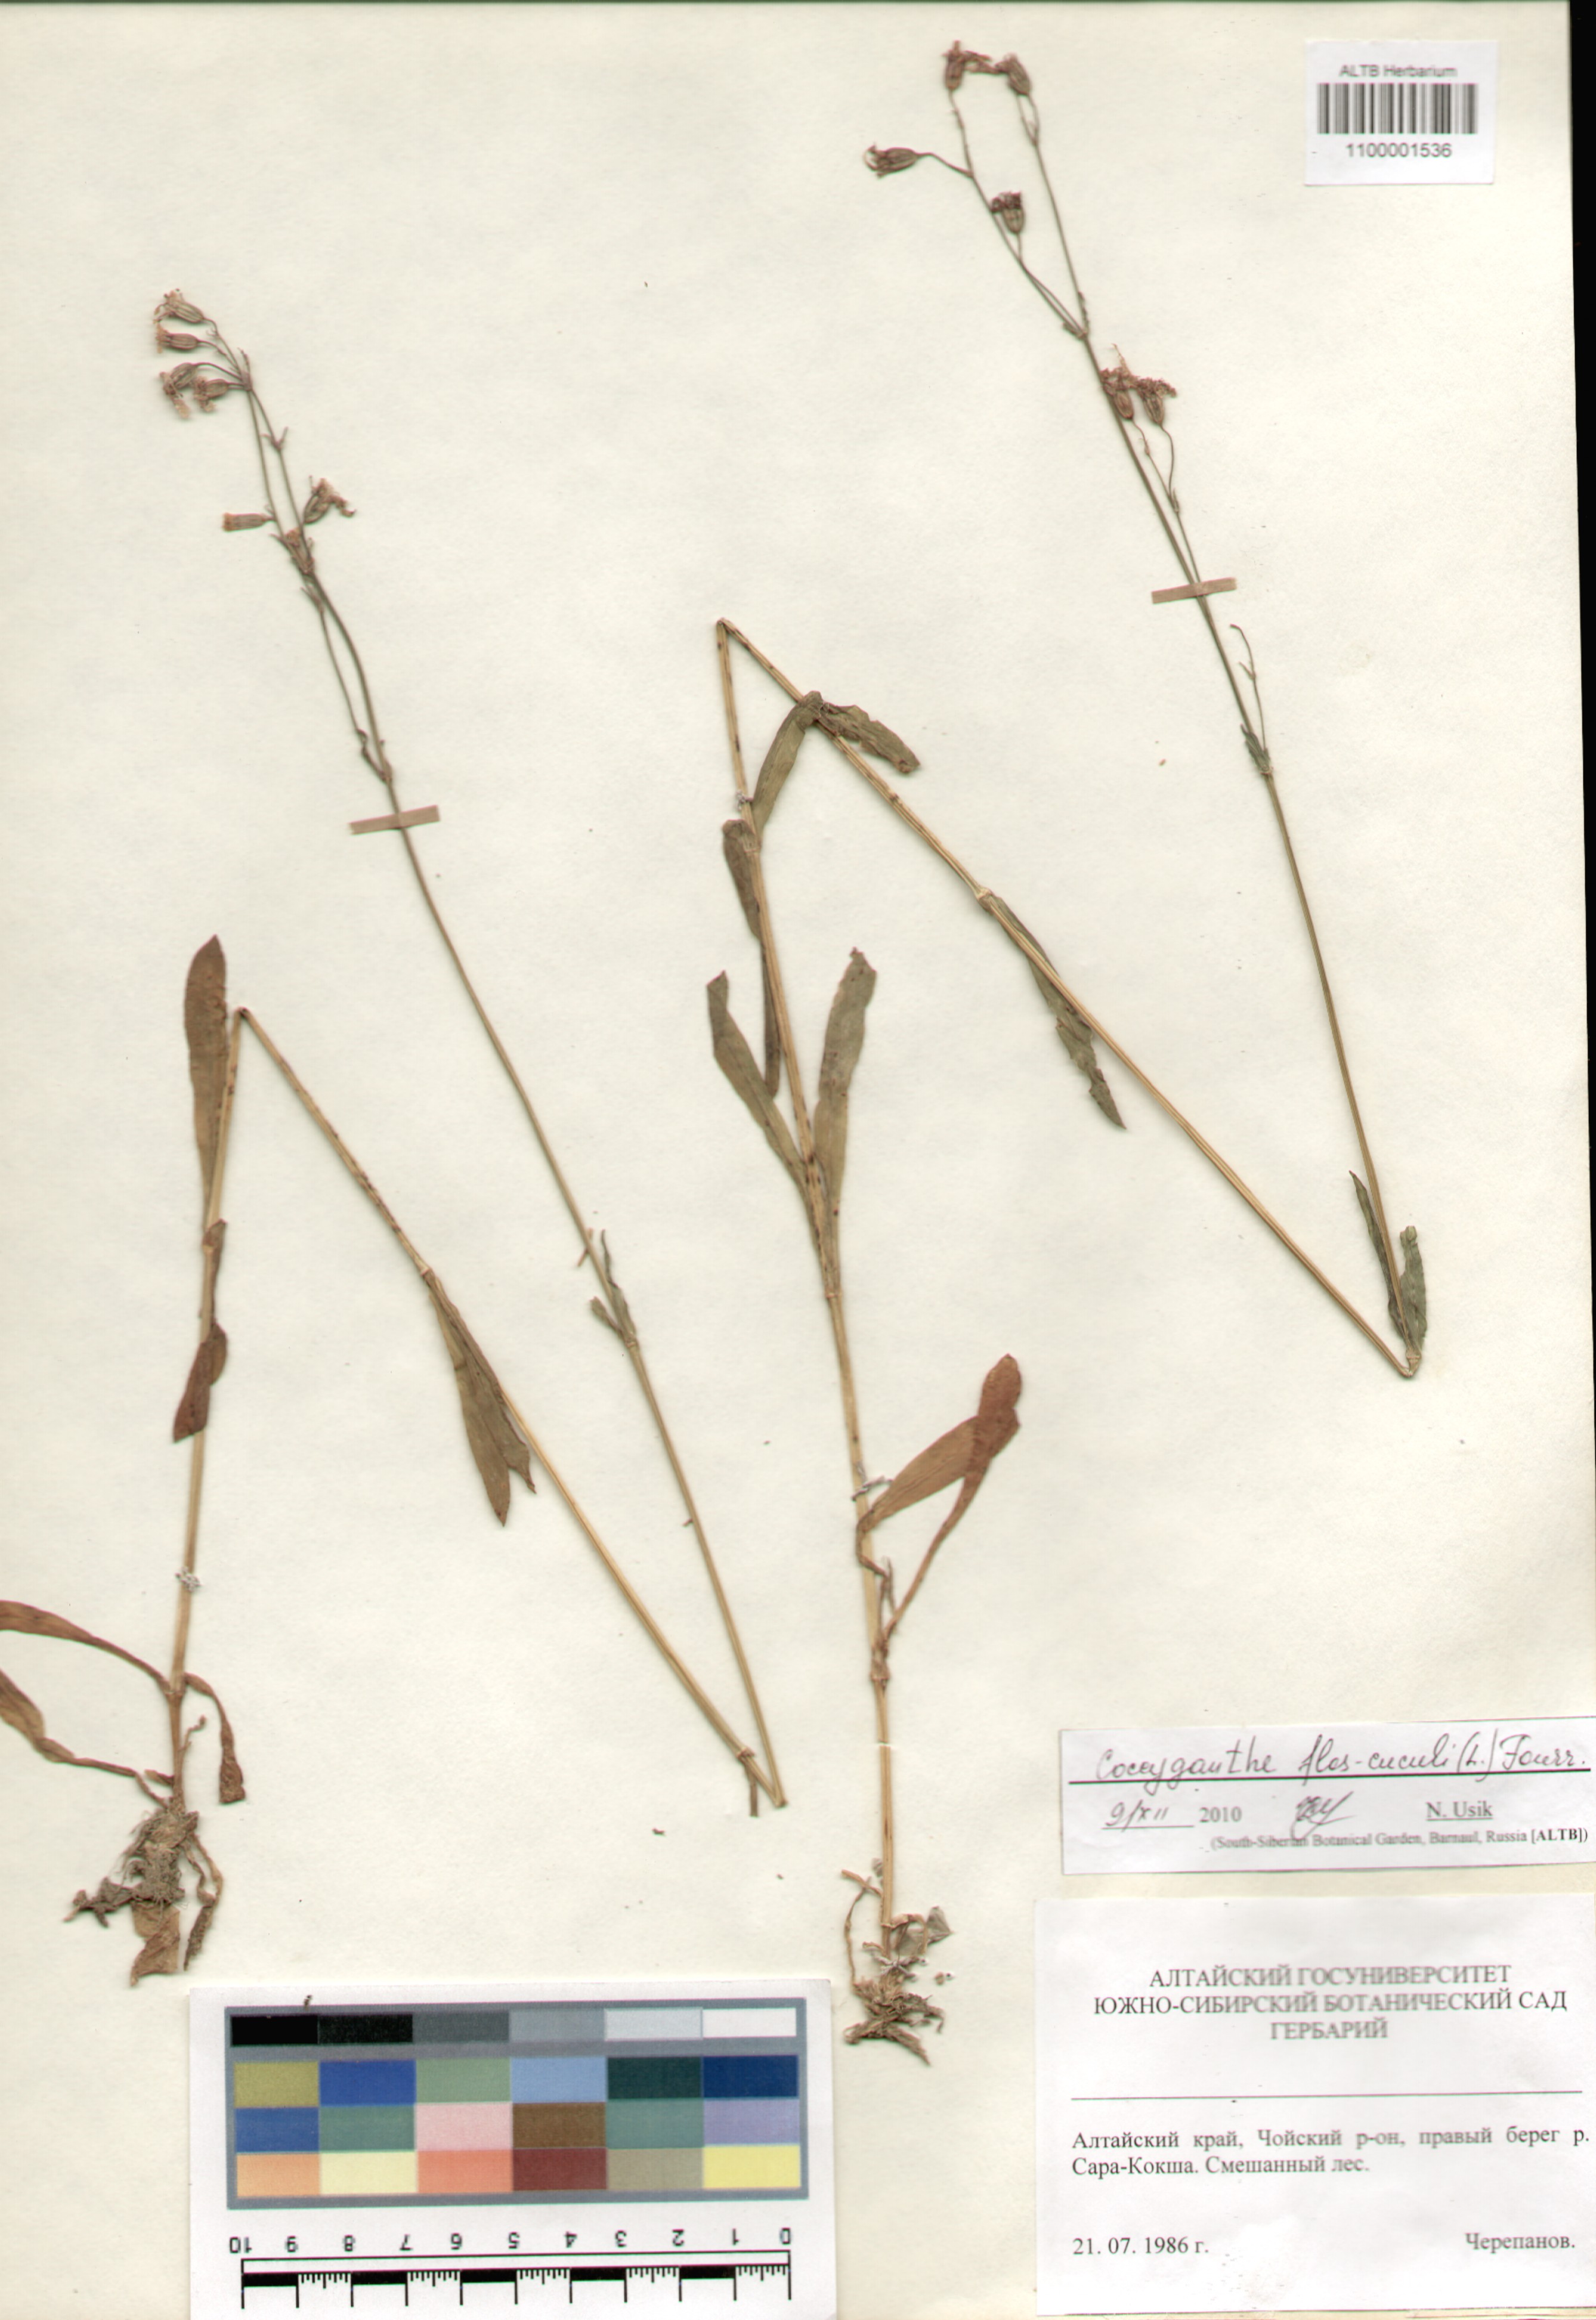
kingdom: Plantae
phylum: Tracheophyta
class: Magnoliopsida
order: Caryophyllales
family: Caryophyllaceae
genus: Silene
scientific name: Silene flos-cuculi
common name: Ragged-robin
